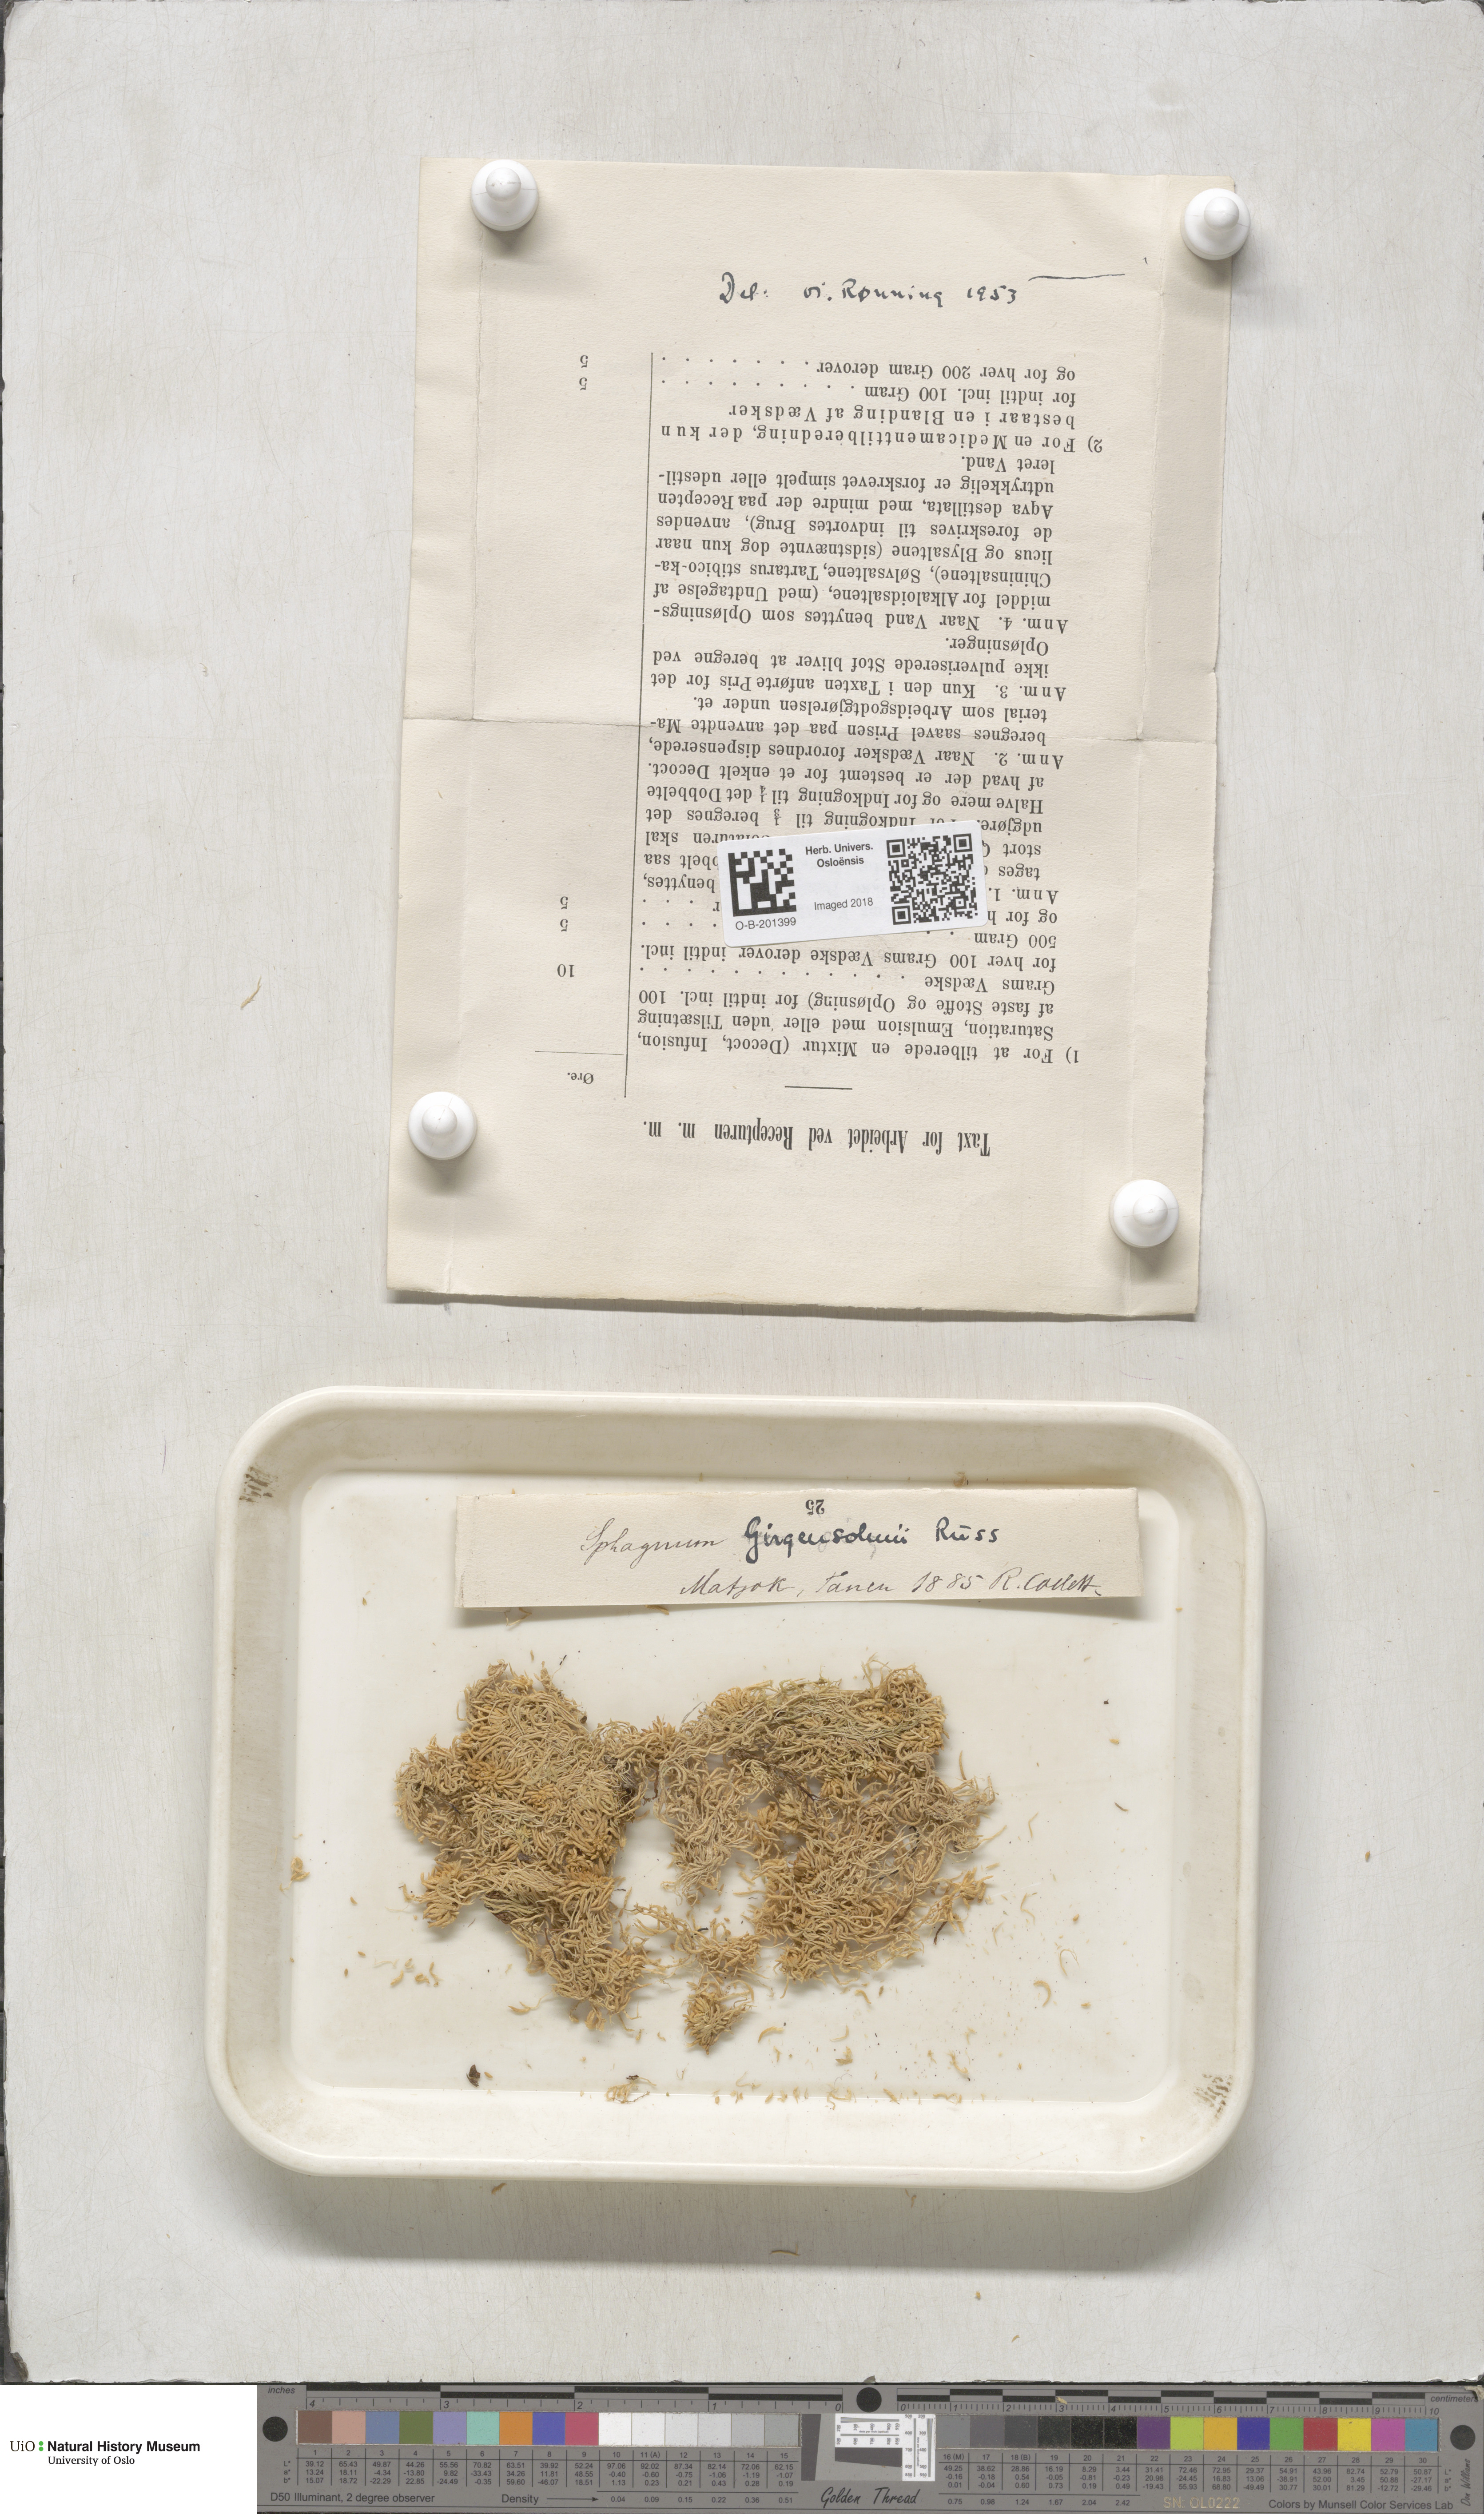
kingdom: Plantae
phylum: Bryophyta
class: Sphagnopsida
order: Sphagnales
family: Sphagnaceae
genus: Sphagnum
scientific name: Sphagnum girgensohnii
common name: Girgensohn's peat moss
